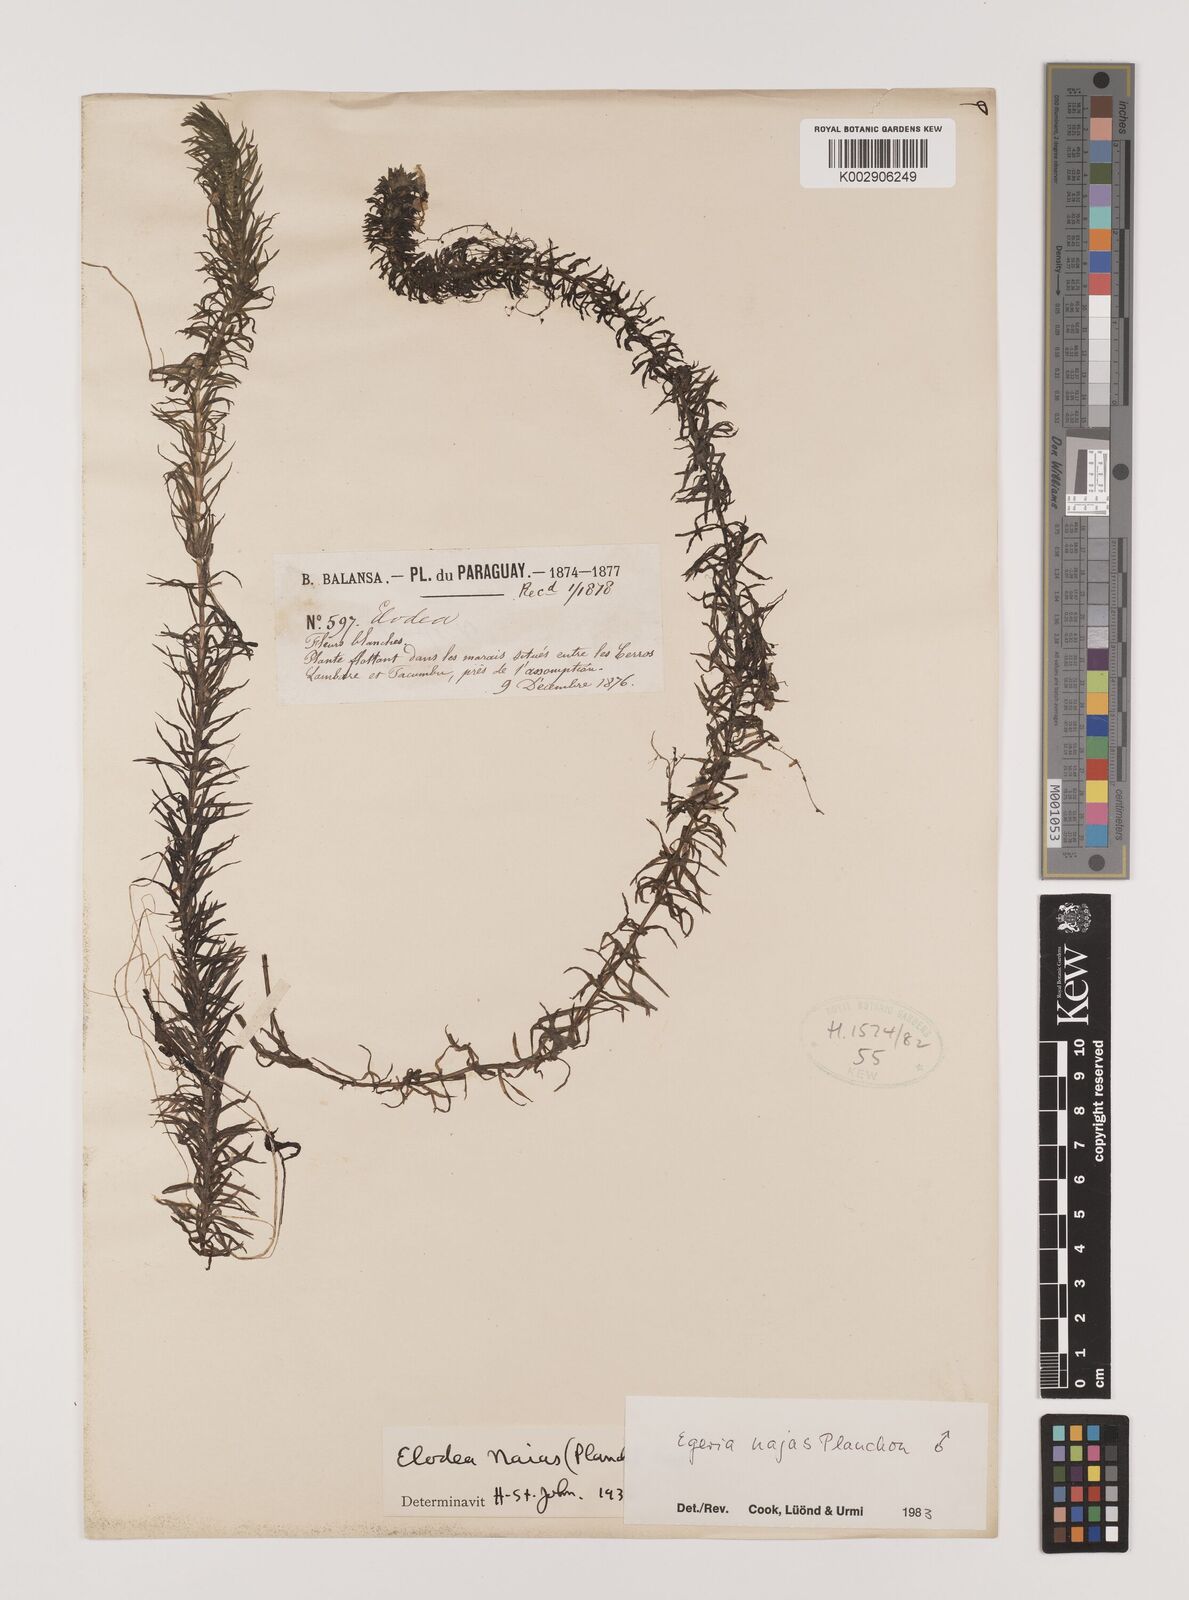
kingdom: Plantae
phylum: Tracheophyta
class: Liliopsida
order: Alismatales
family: Hydrocharitaceae
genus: Elodea
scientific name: Elodea najas
